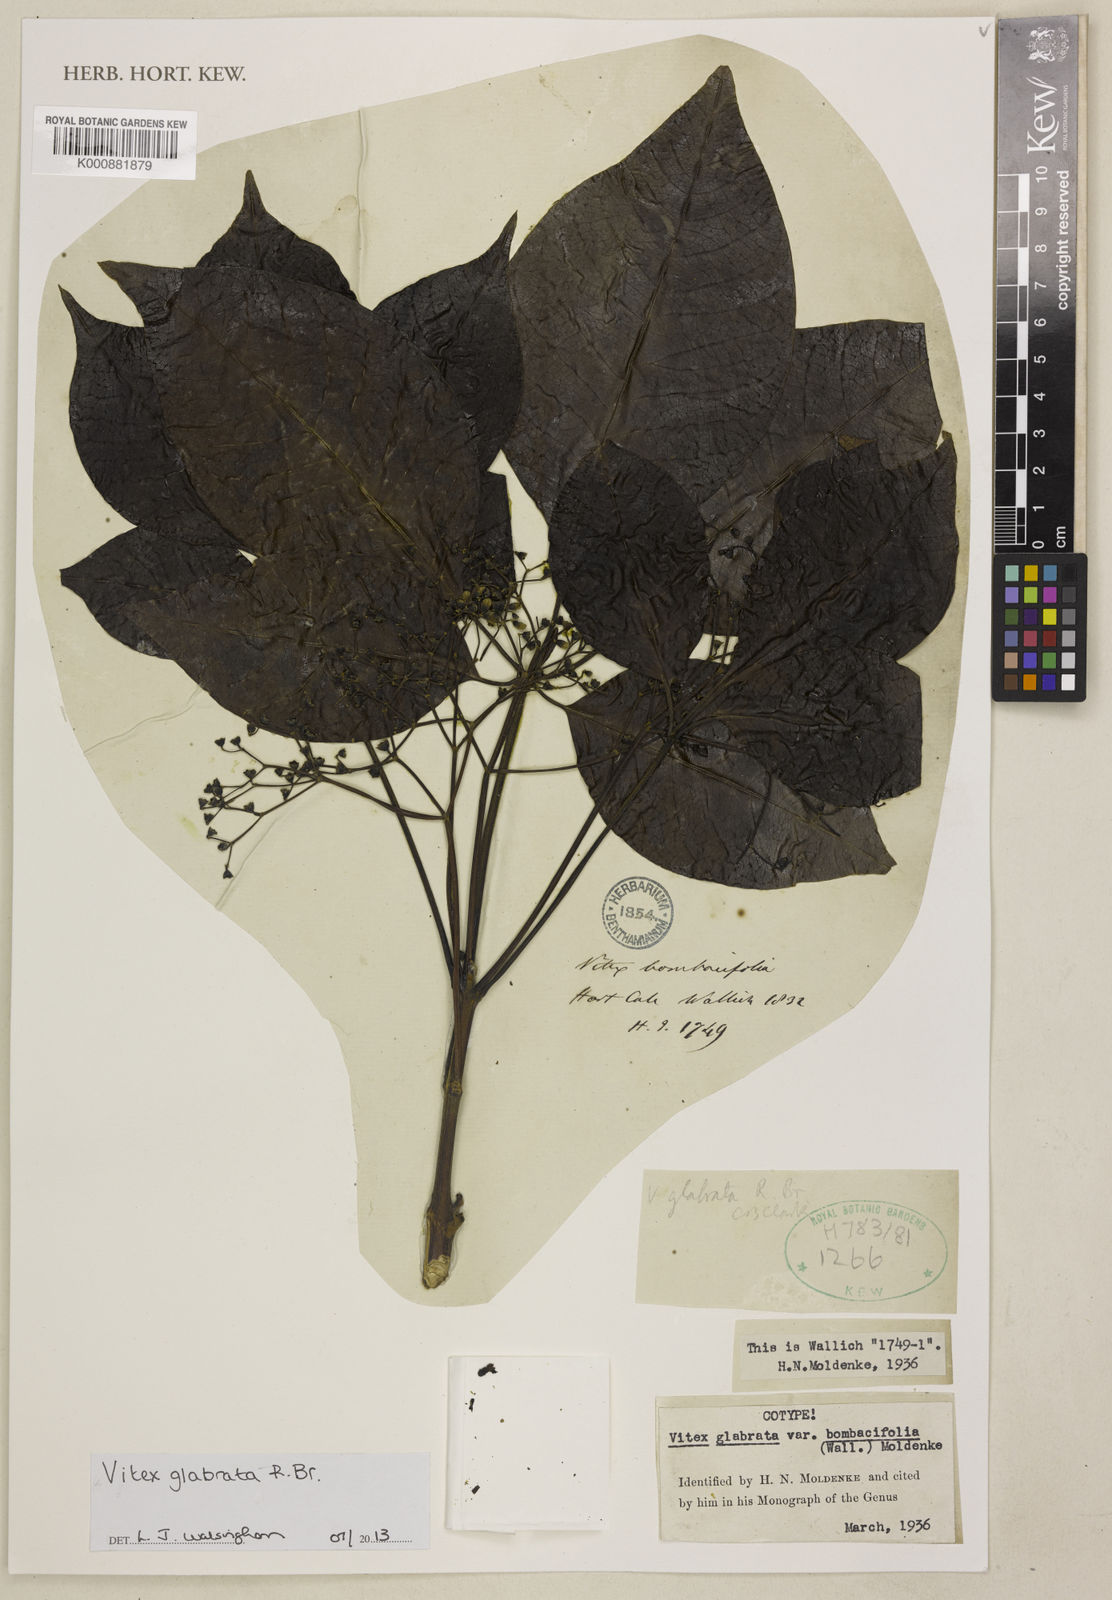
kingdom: Plantae
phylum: Tracheophyta
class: Magnoliopsida
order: Lamiales
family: Lamiaceae
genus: Vitex
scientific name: Vitex glabrata
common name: Smooth chastetree
